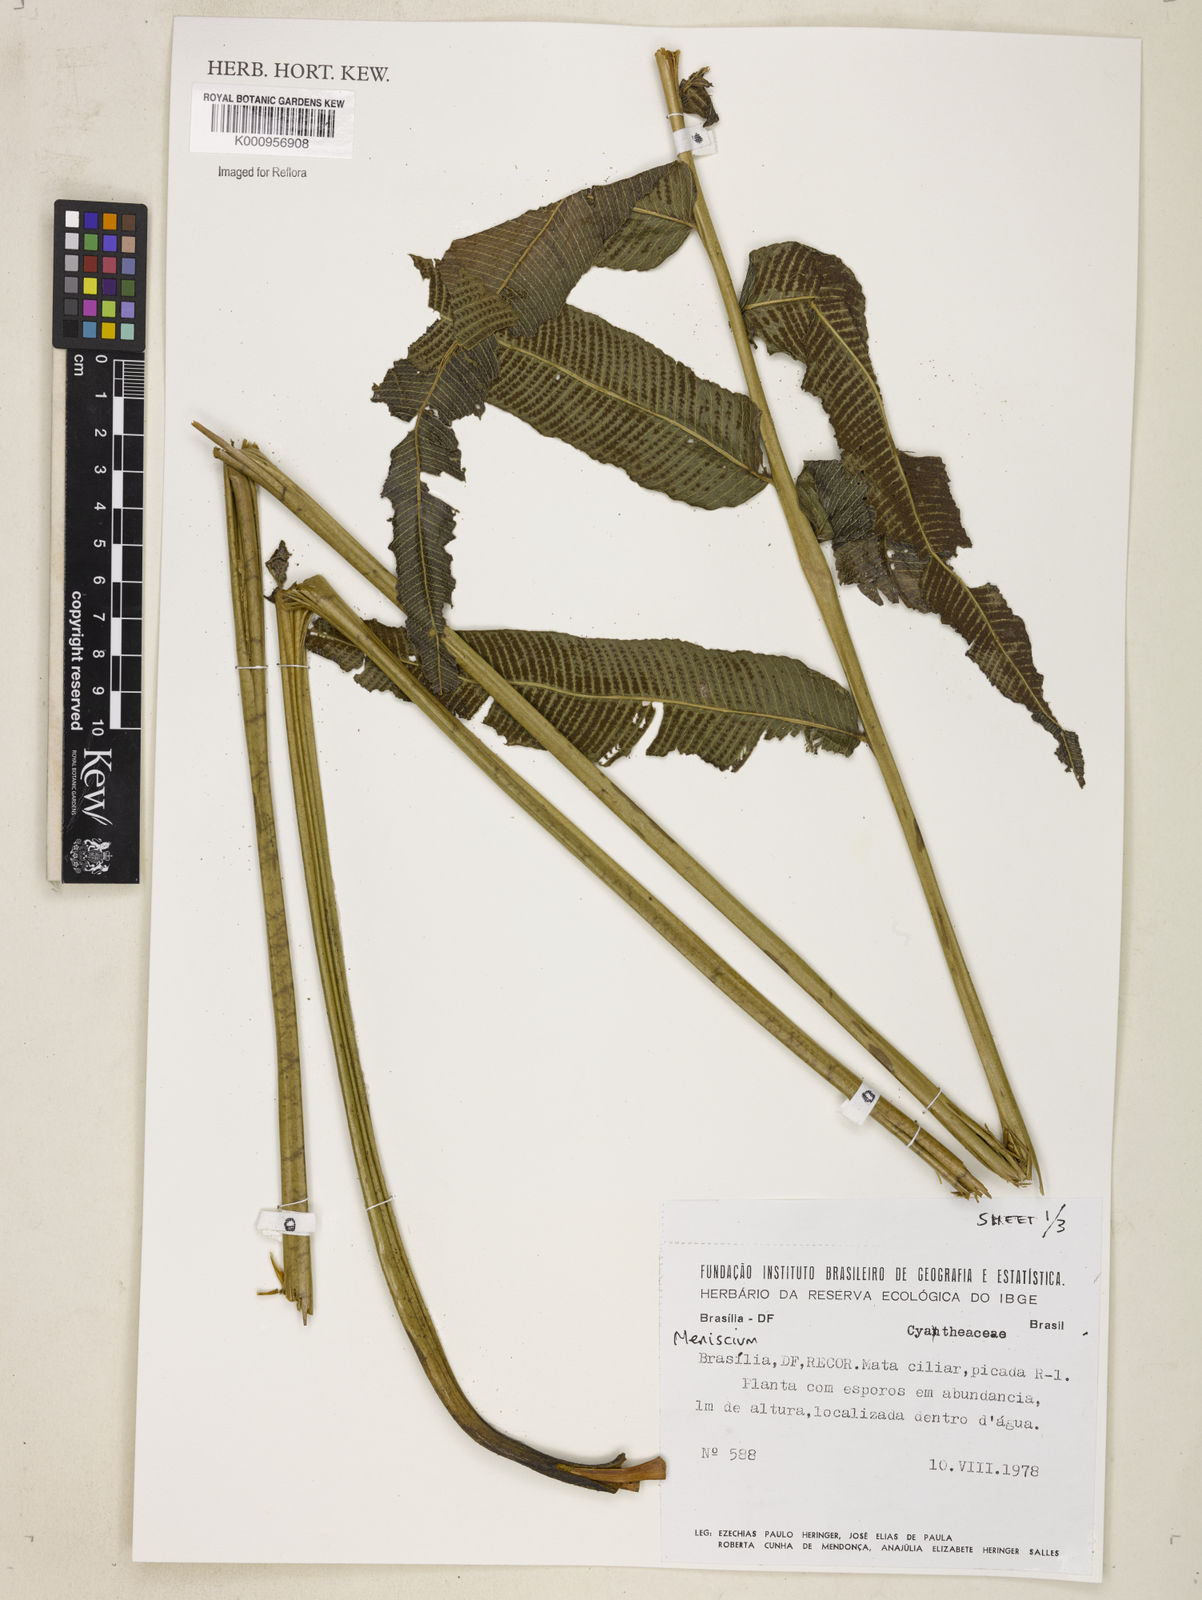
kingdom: Plantae
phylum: Tracheophyta
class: Polypodiopsida
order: Polypodiales
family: Thelypteridaceae
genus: Meniscium
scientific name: Meniscium
